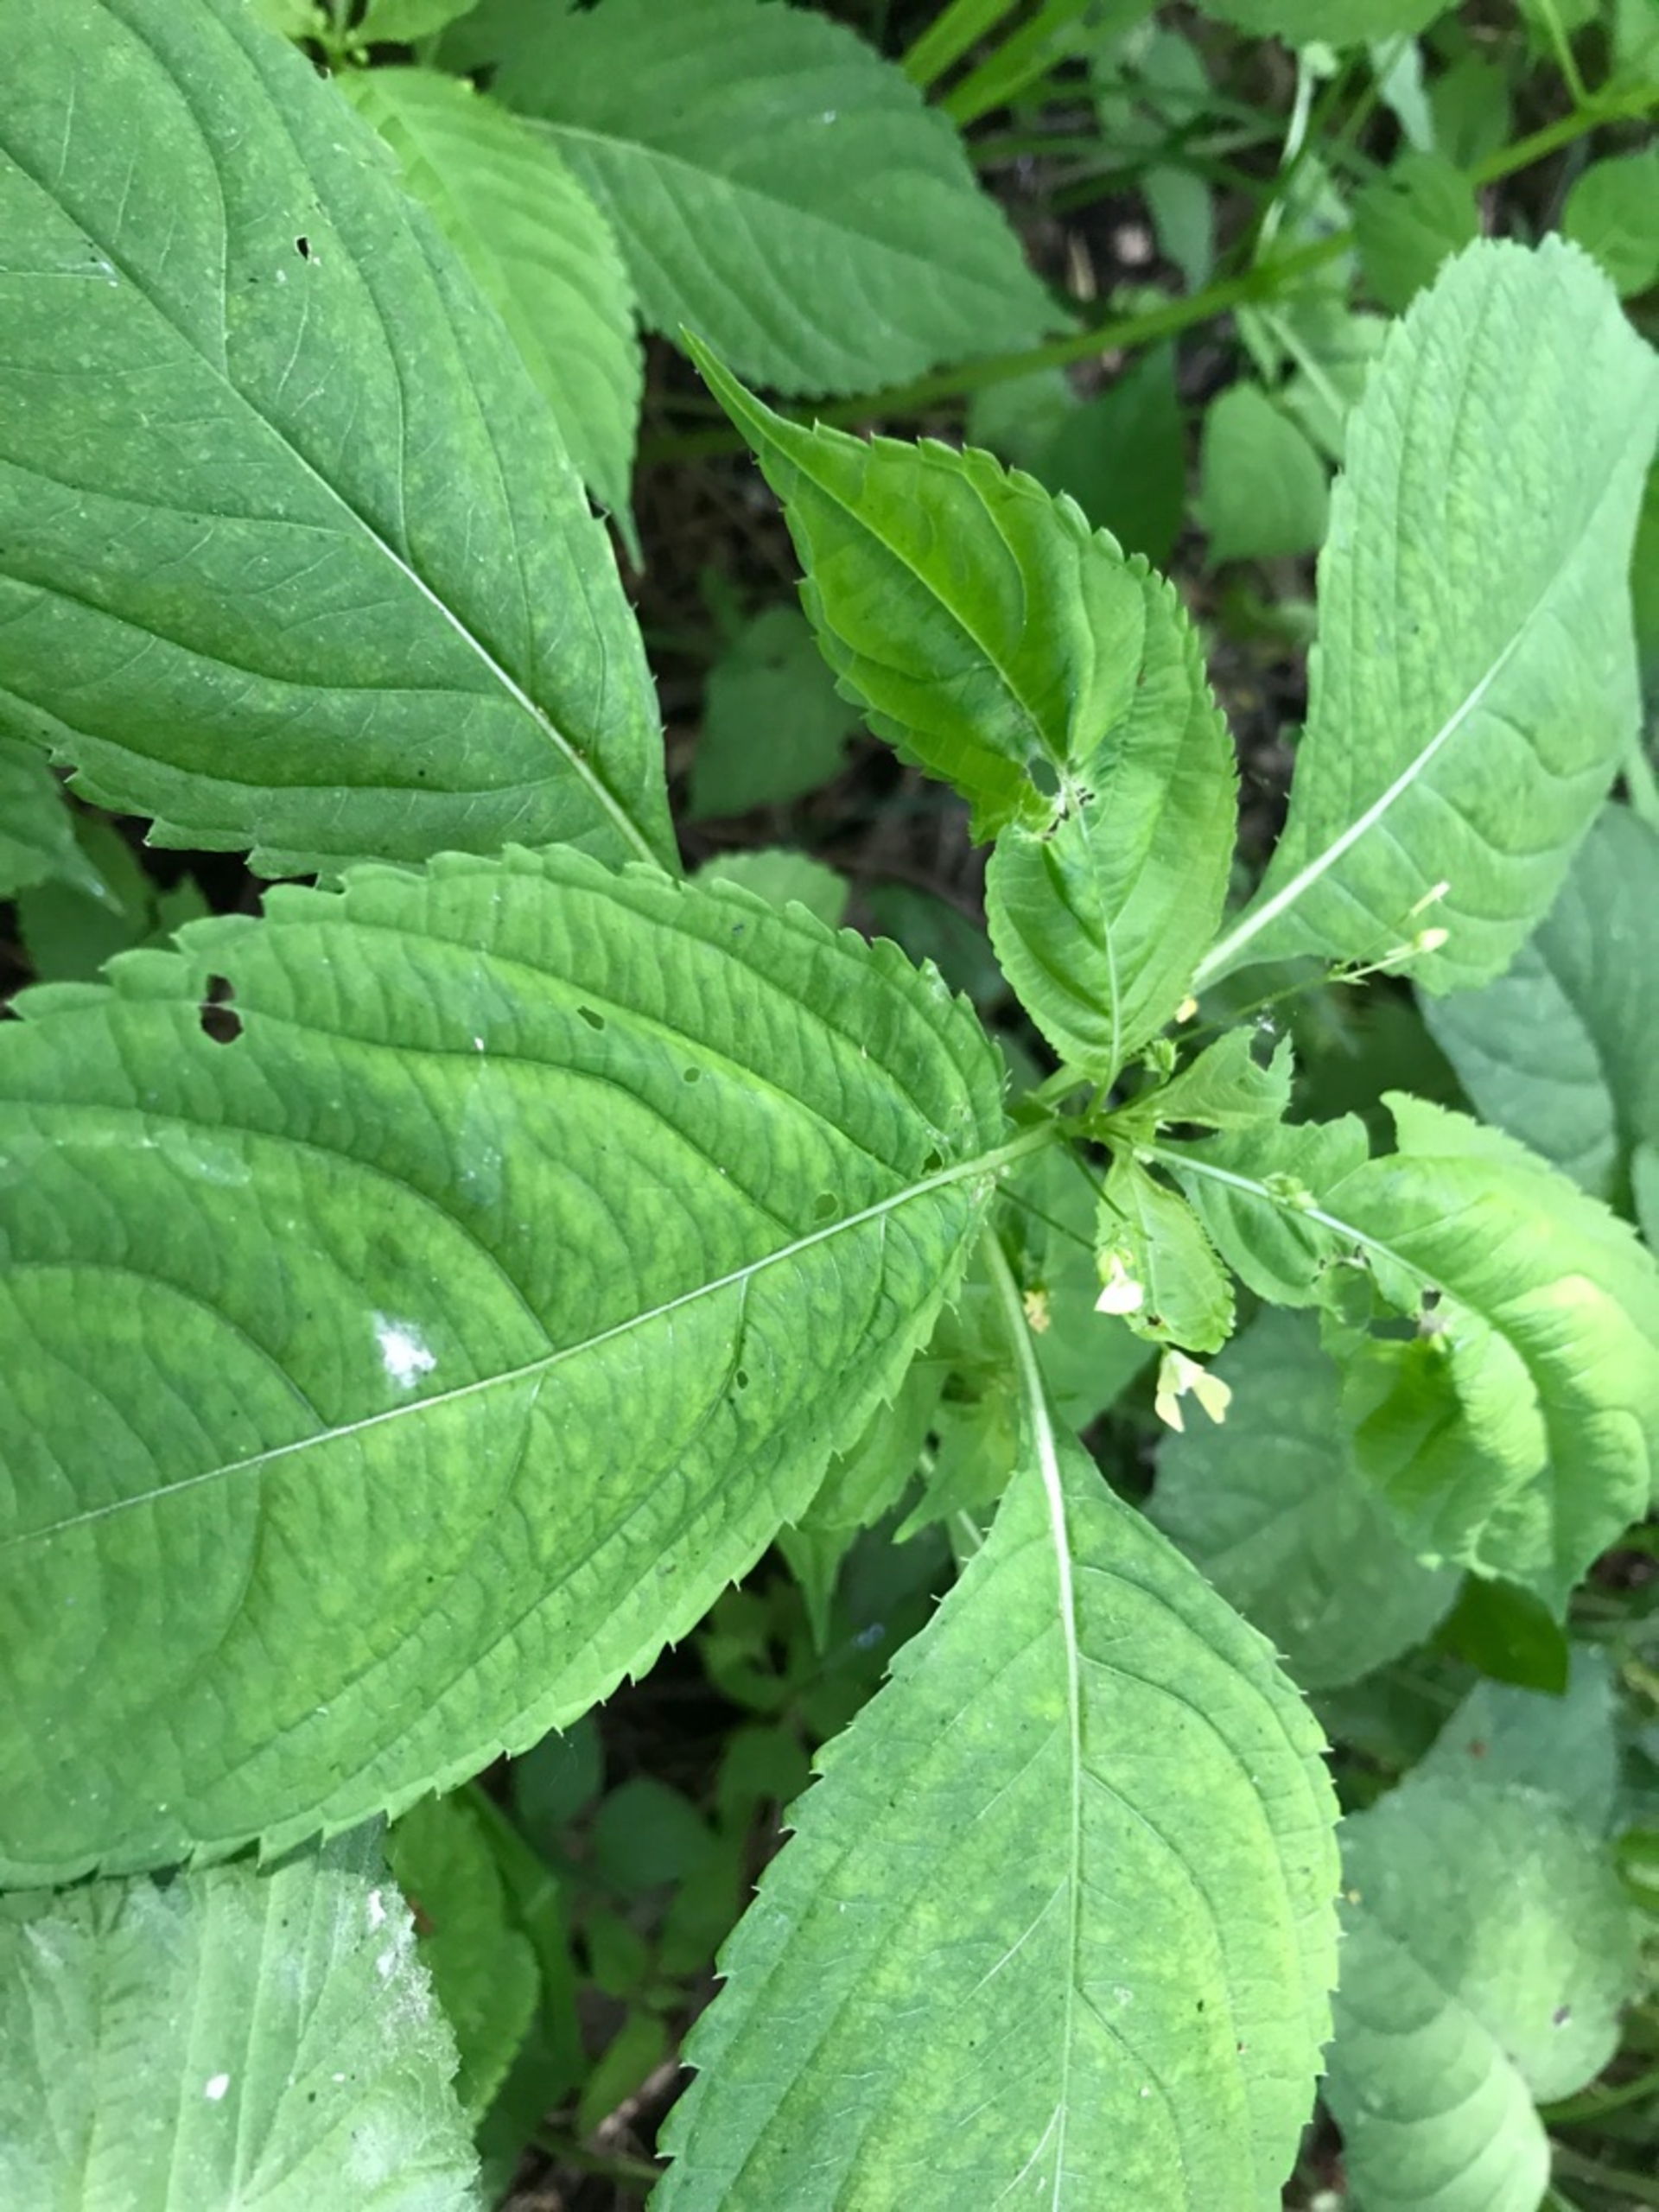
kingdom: Plantae
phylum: Tracheophyta
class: Magnoliopsida
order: Ericales
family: Balsaminaceae
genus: Impatiens
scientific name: Impatiens parviflora
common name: Småblomstret balsamin
